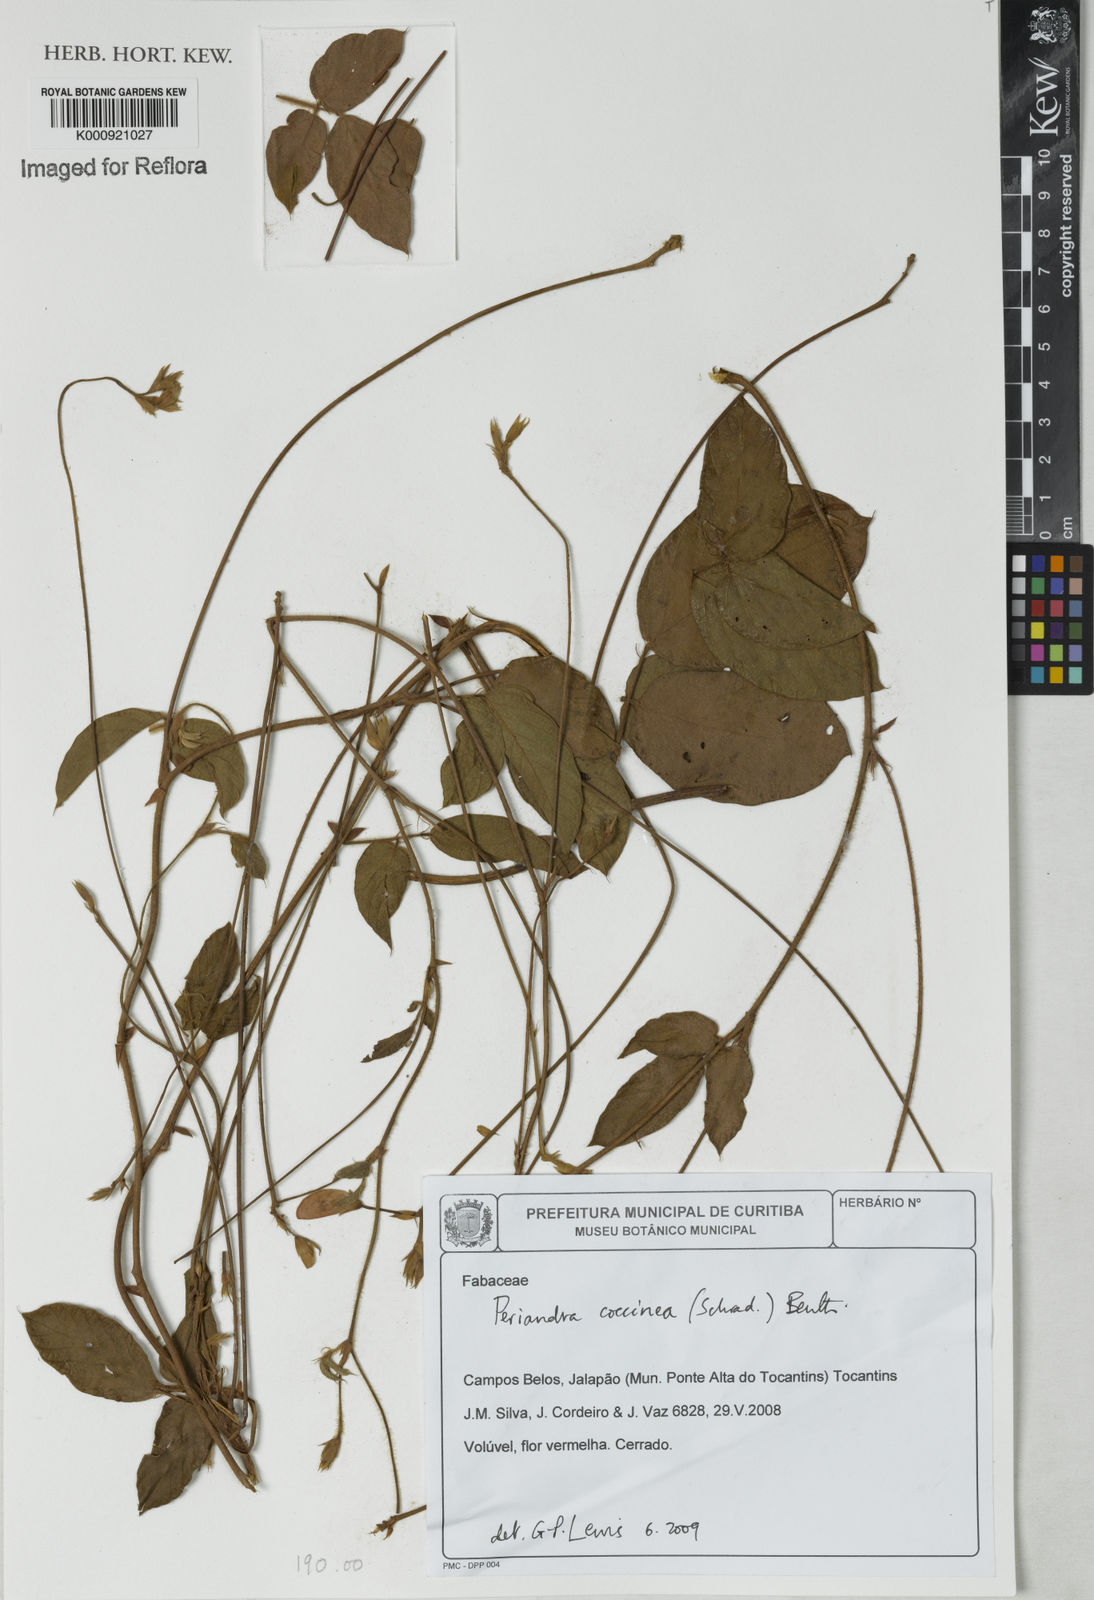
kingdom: Plantae
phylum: Tracheophyta
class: Magnoliopsida
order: Fabales
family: Fabaceae
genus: Periandra
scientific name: Periandra coccinea
